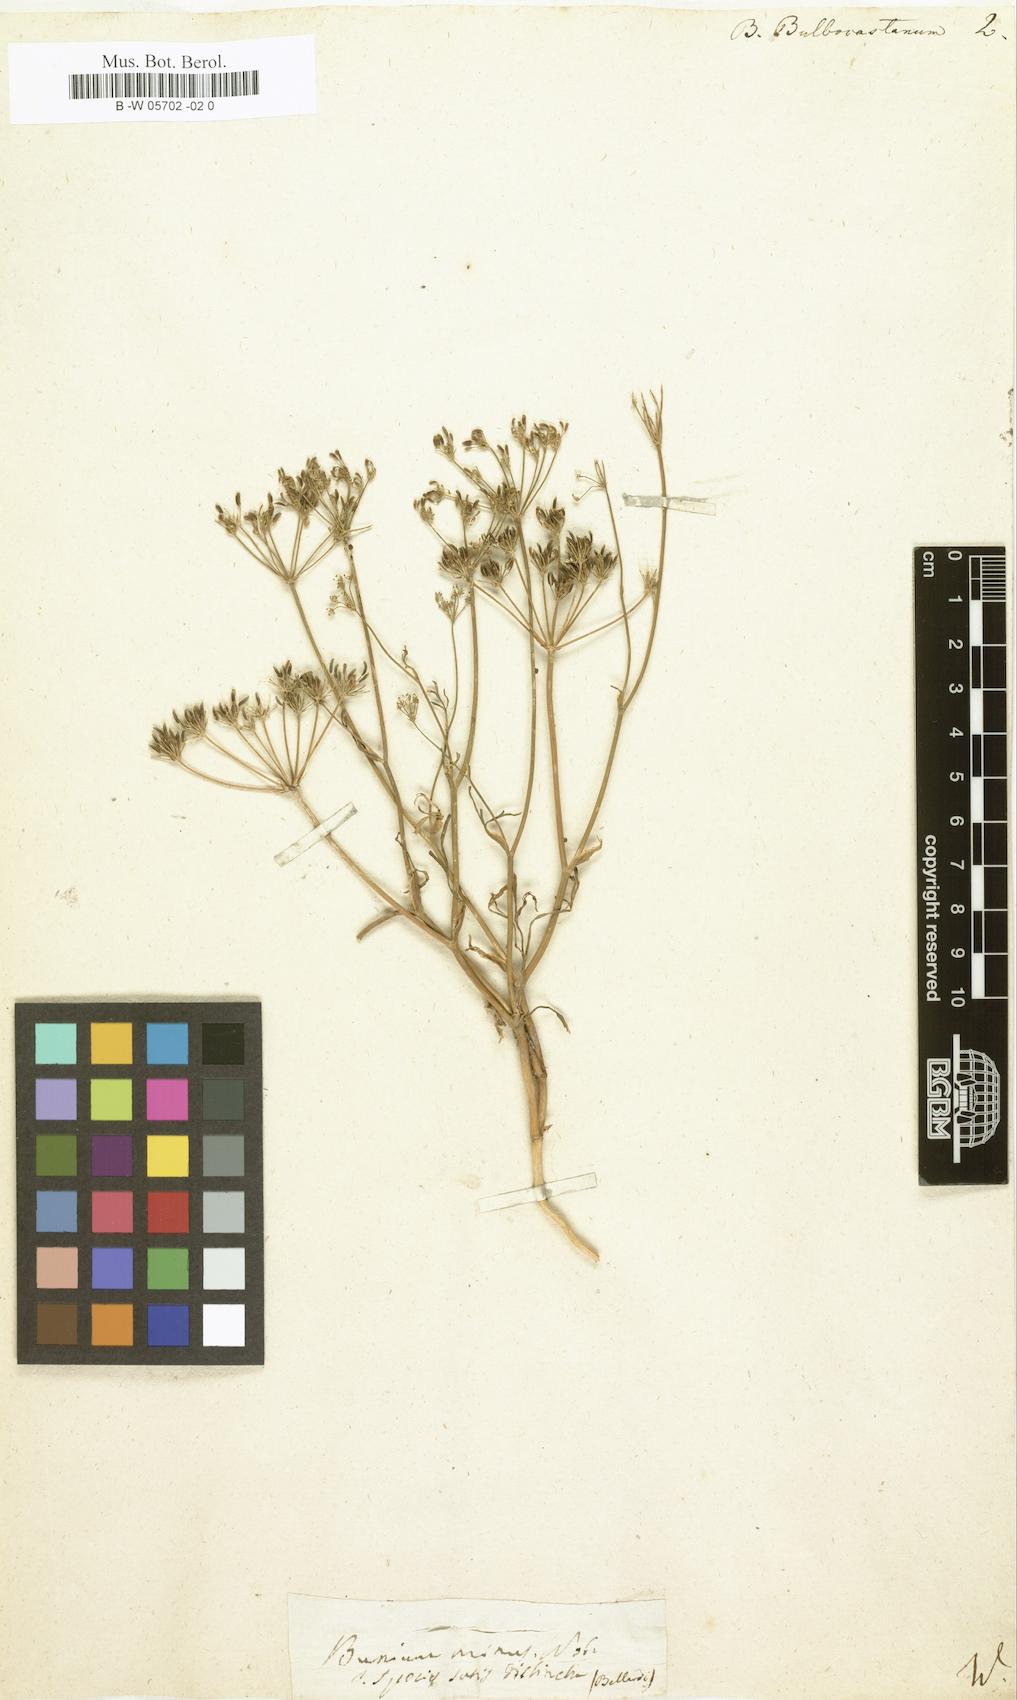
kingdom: Plantae
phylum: Tracheophyta
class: Magnoliopsida
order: Apiales
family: Apiaceae
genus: Bunium
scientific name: Bunium bulbocastanum
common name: Great pignut
